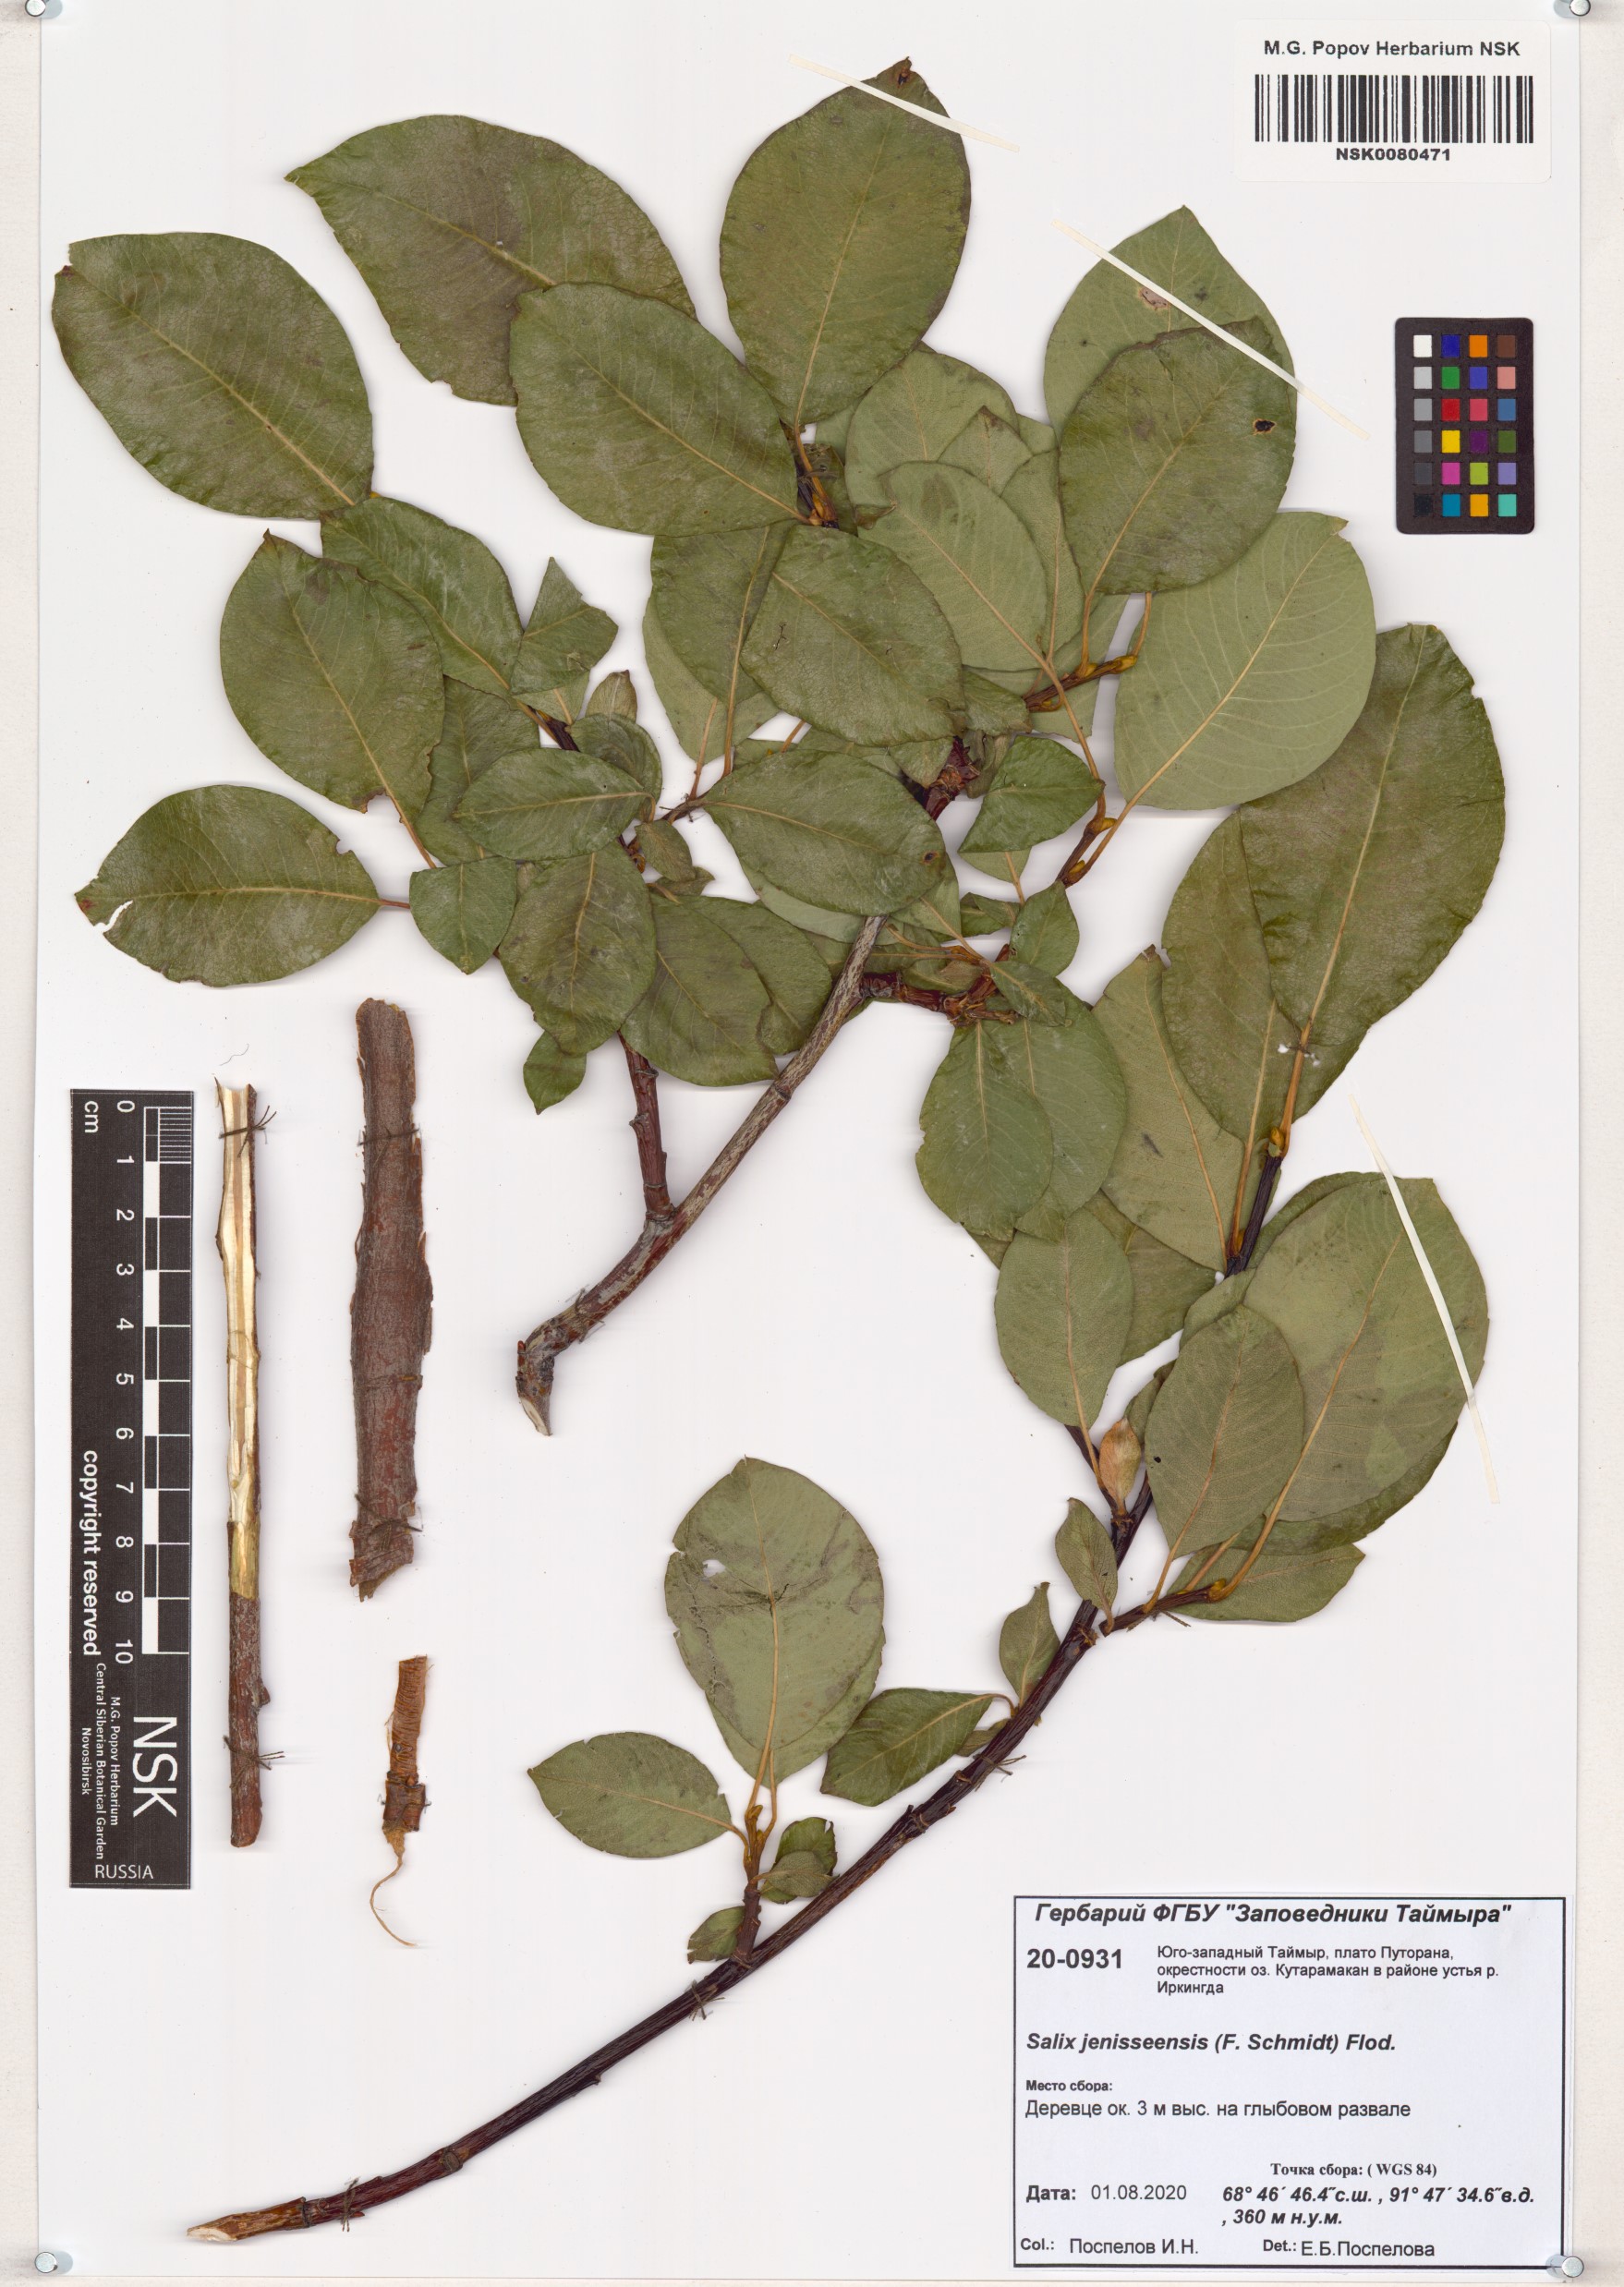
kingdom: Plantae
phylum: Tracheophyta
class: Magnoliopsida
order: Malpighiales
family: Salicaceae
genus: Salix
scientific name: Salix jenisseensis
